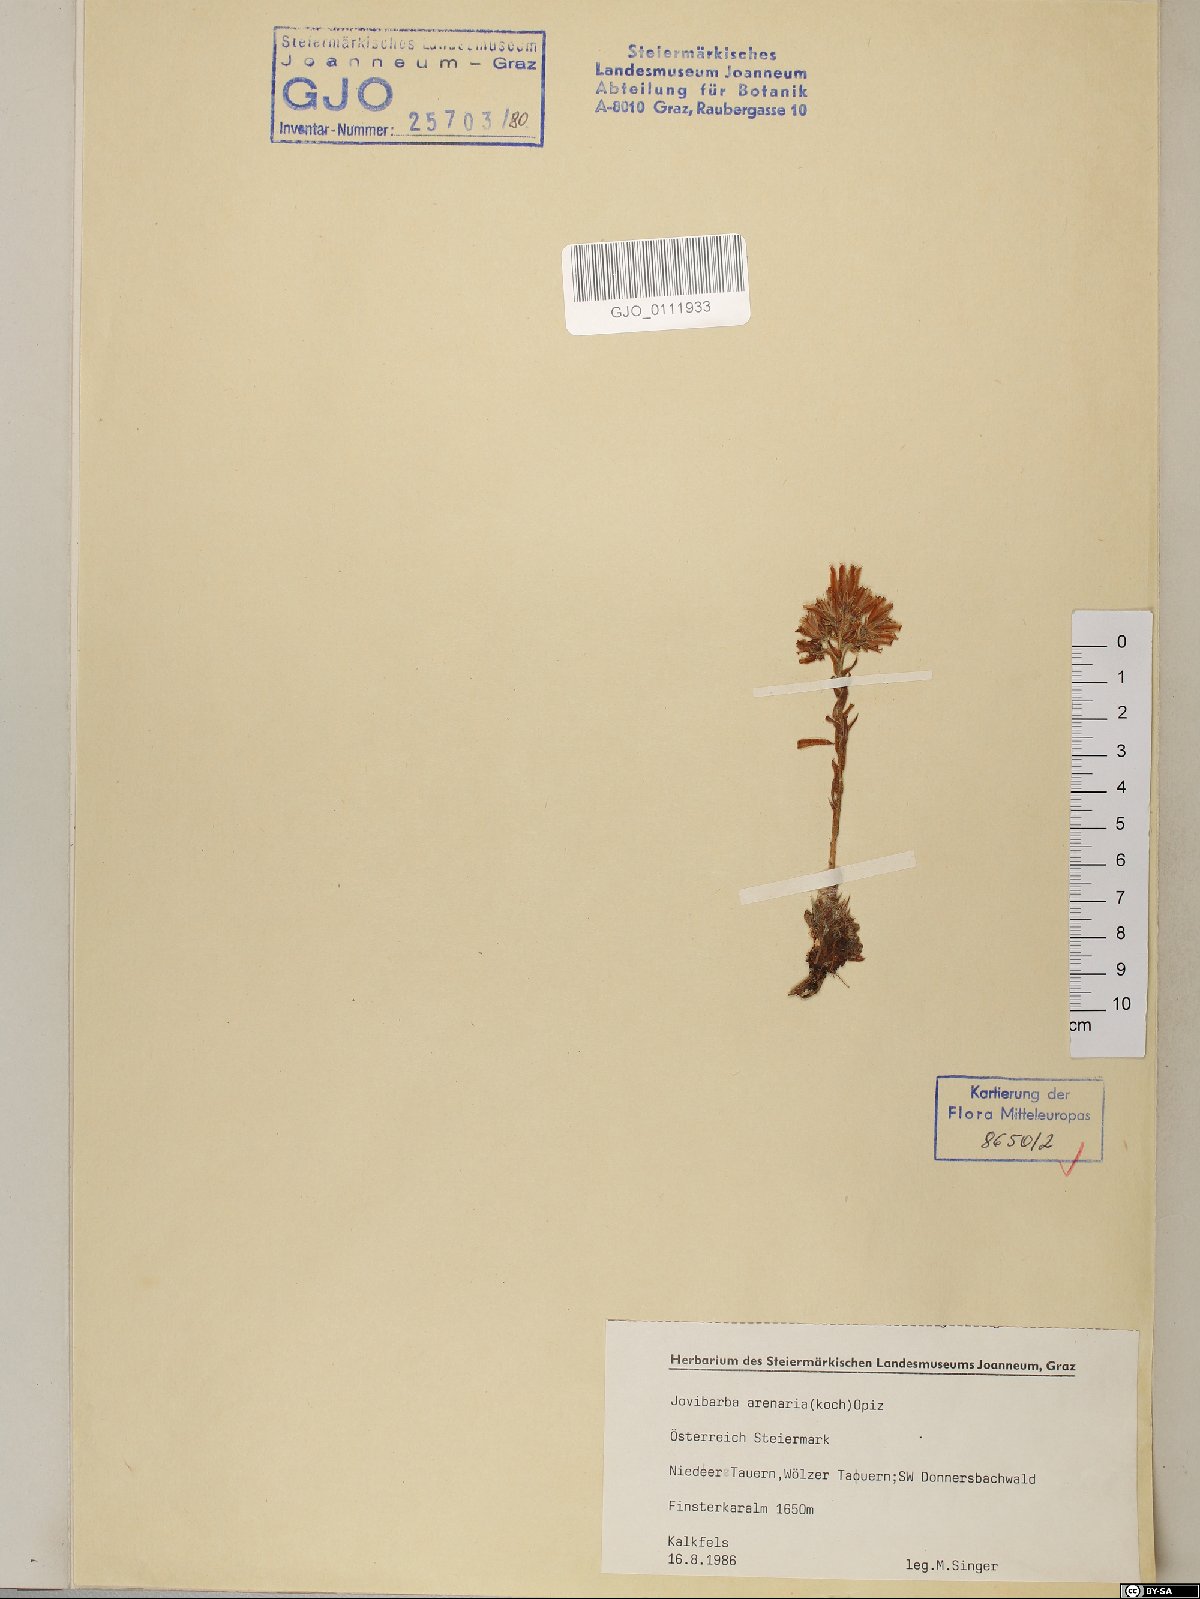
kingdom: Plantae
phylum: Tracheophyta
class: Magnoliopsida
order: Saxifragales
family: Crassulaceae
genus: Sempervivum
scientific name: Sempervivum globiferum
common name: Rolling hen-and-chicks
